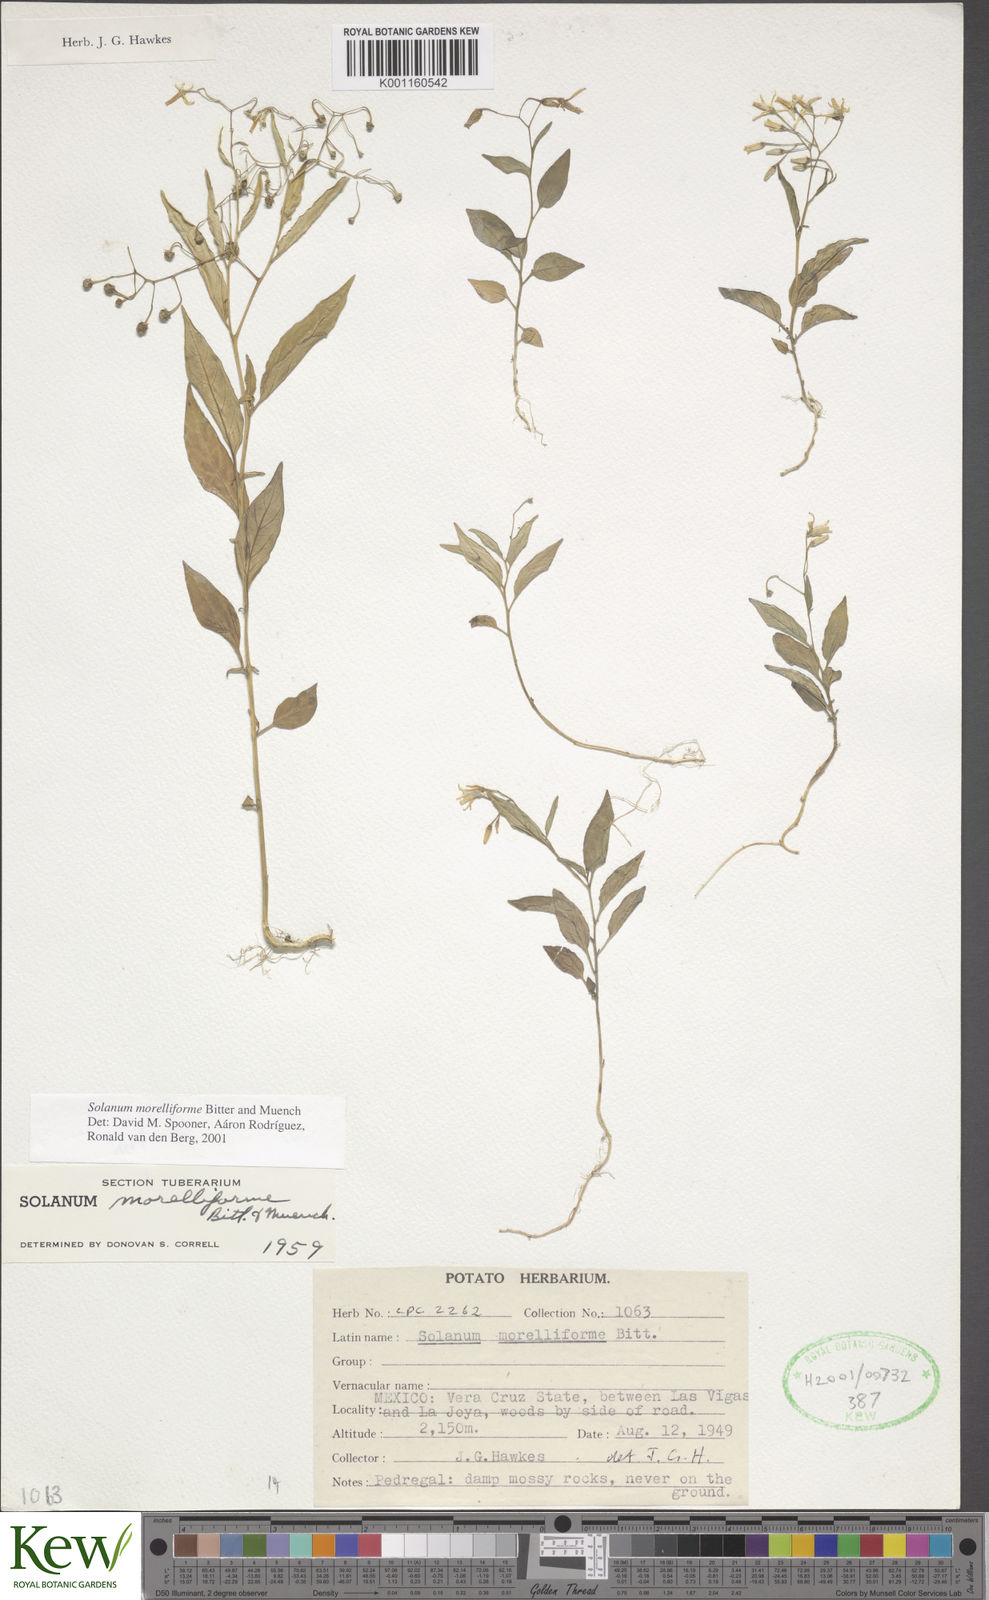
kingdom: Plantae
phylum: Tracheophyta
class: Magnoliopsida
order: Solanales
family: Solanaceae
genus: Solanum
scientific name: Solanum
